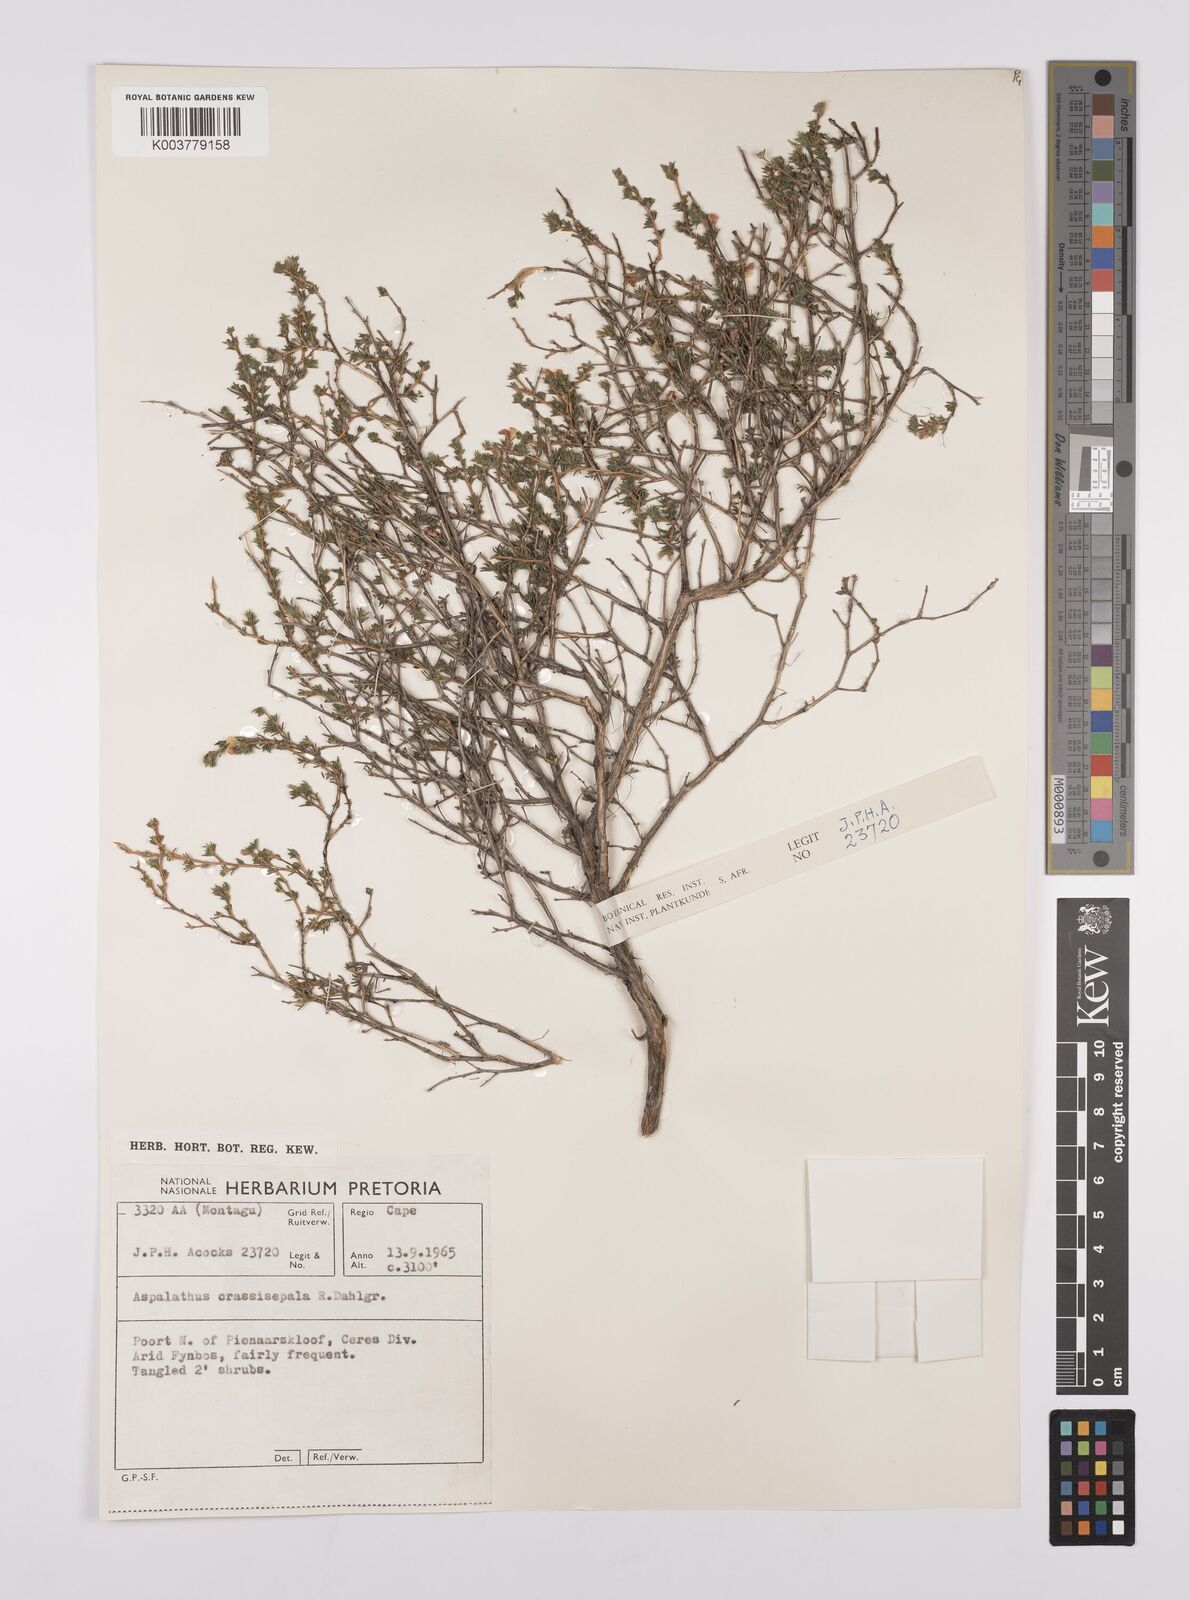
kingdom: Plantae
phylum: Tracheophyta
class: Magnoliopsida
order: Fabales
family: Fabaceae
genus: Aspalathus
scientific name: Aspalathus crassisepala
